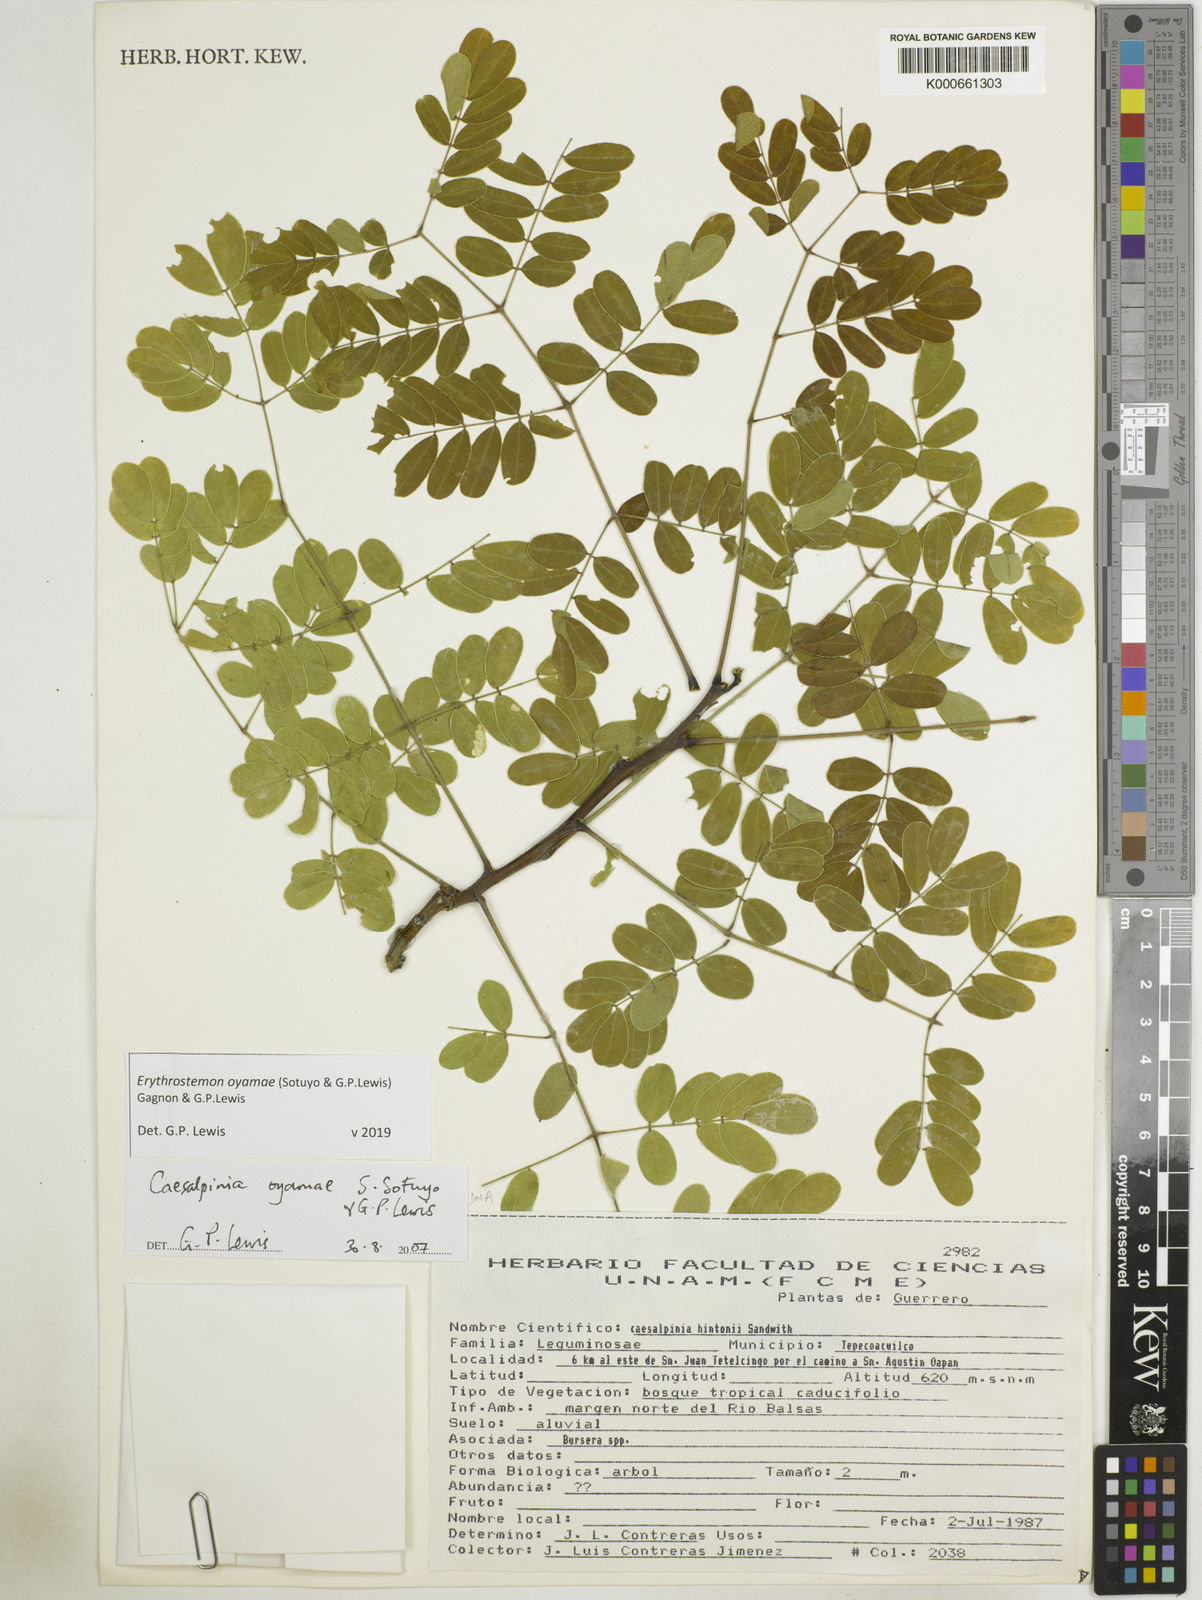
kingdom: Plantae
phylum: Tracheophyta
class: Magnoliopsida
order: Fabales
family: Fabaceae
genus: Erythrostemon
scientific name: Erythrostemon oyamae
